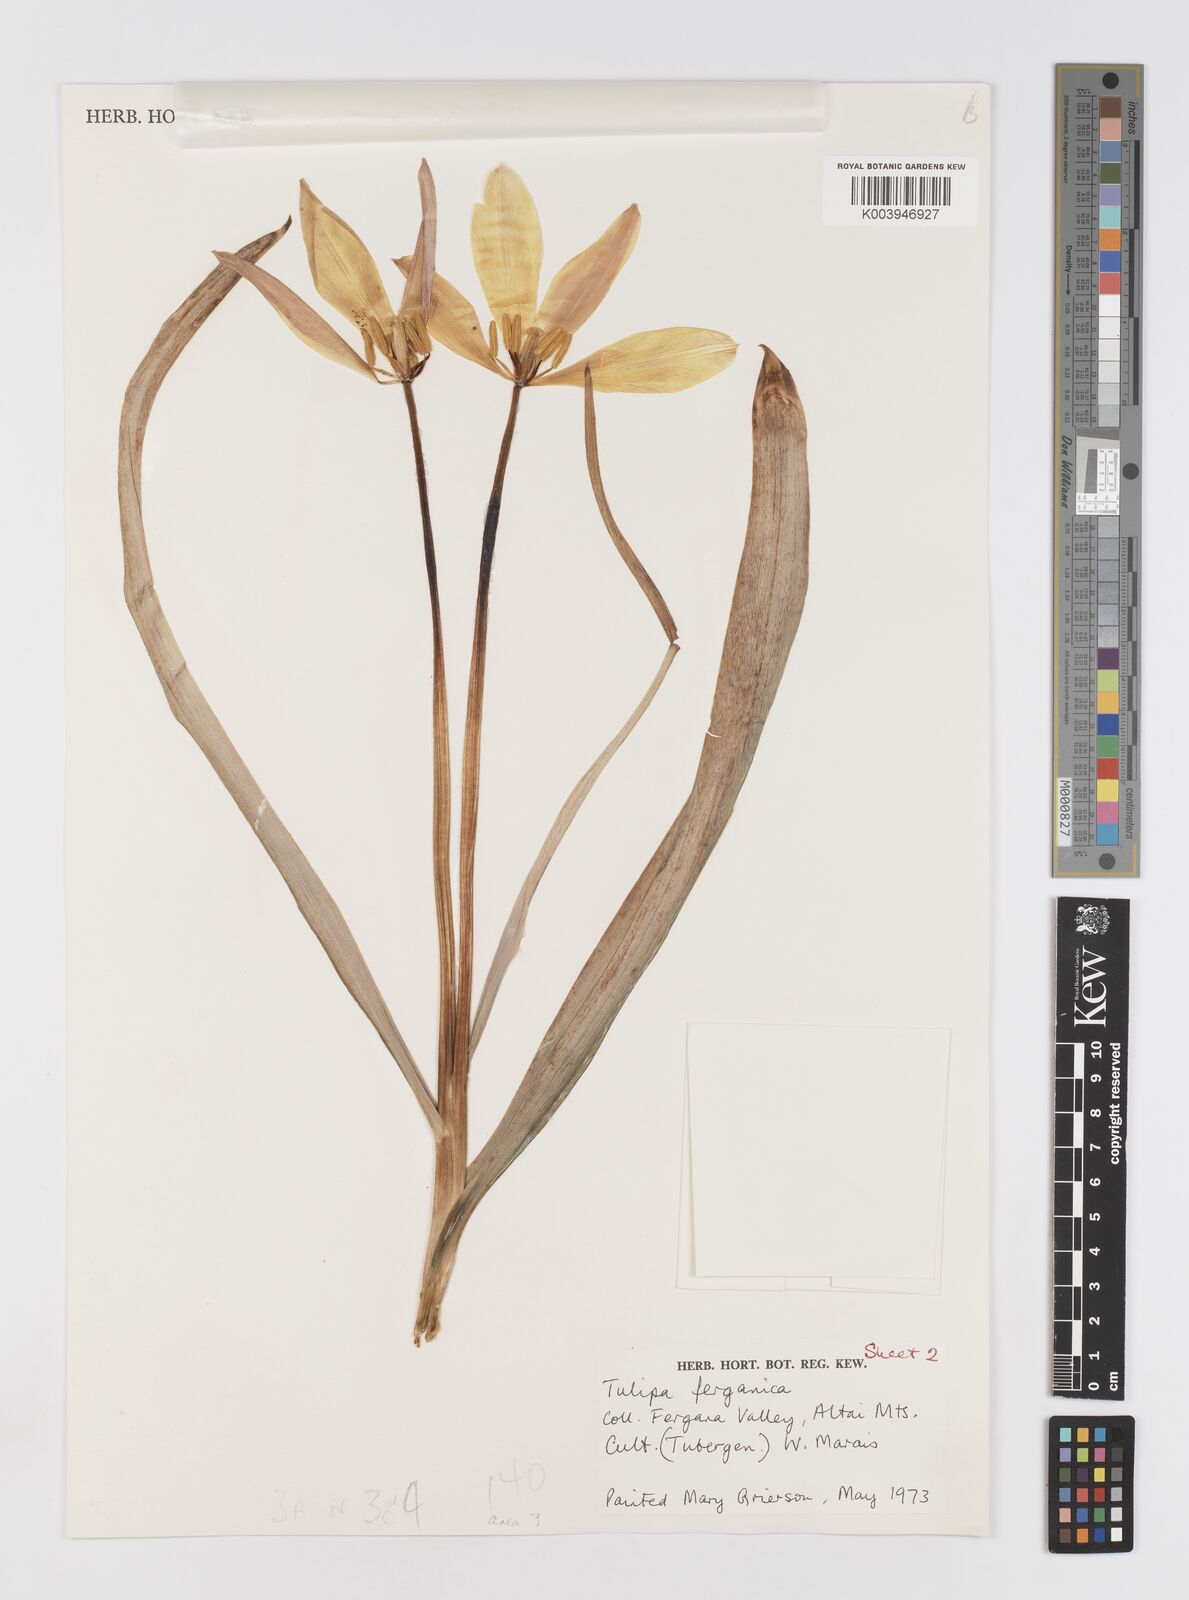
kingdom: Plantae
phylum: Tracheophyta
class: Liliopsida
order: Liliales
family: Liliaceae
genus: Tulipa
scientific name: Tulipa ferganica
